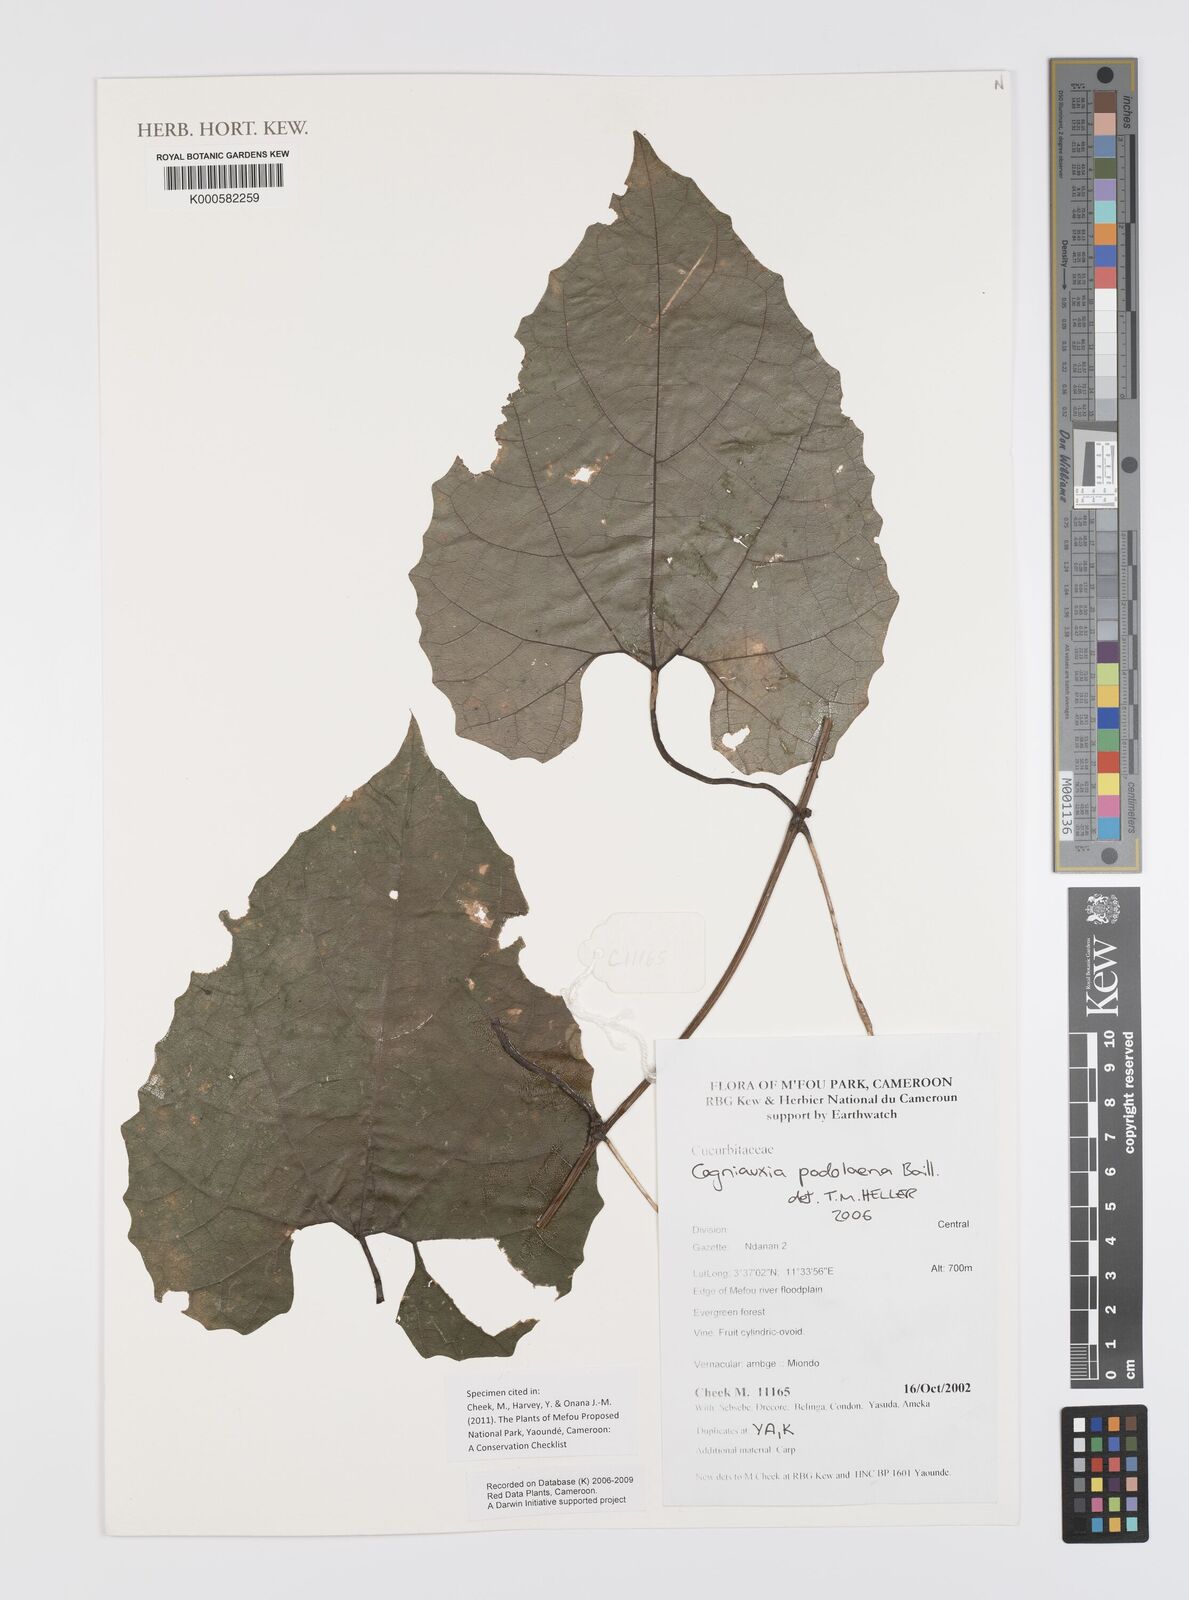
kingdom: Plantae
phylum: Tracheophyta
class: Magnoliopsida
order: Cucurbitales
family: Cucurbitaceae
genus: Cogniauxia
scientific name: Cogniauxia podolaena
